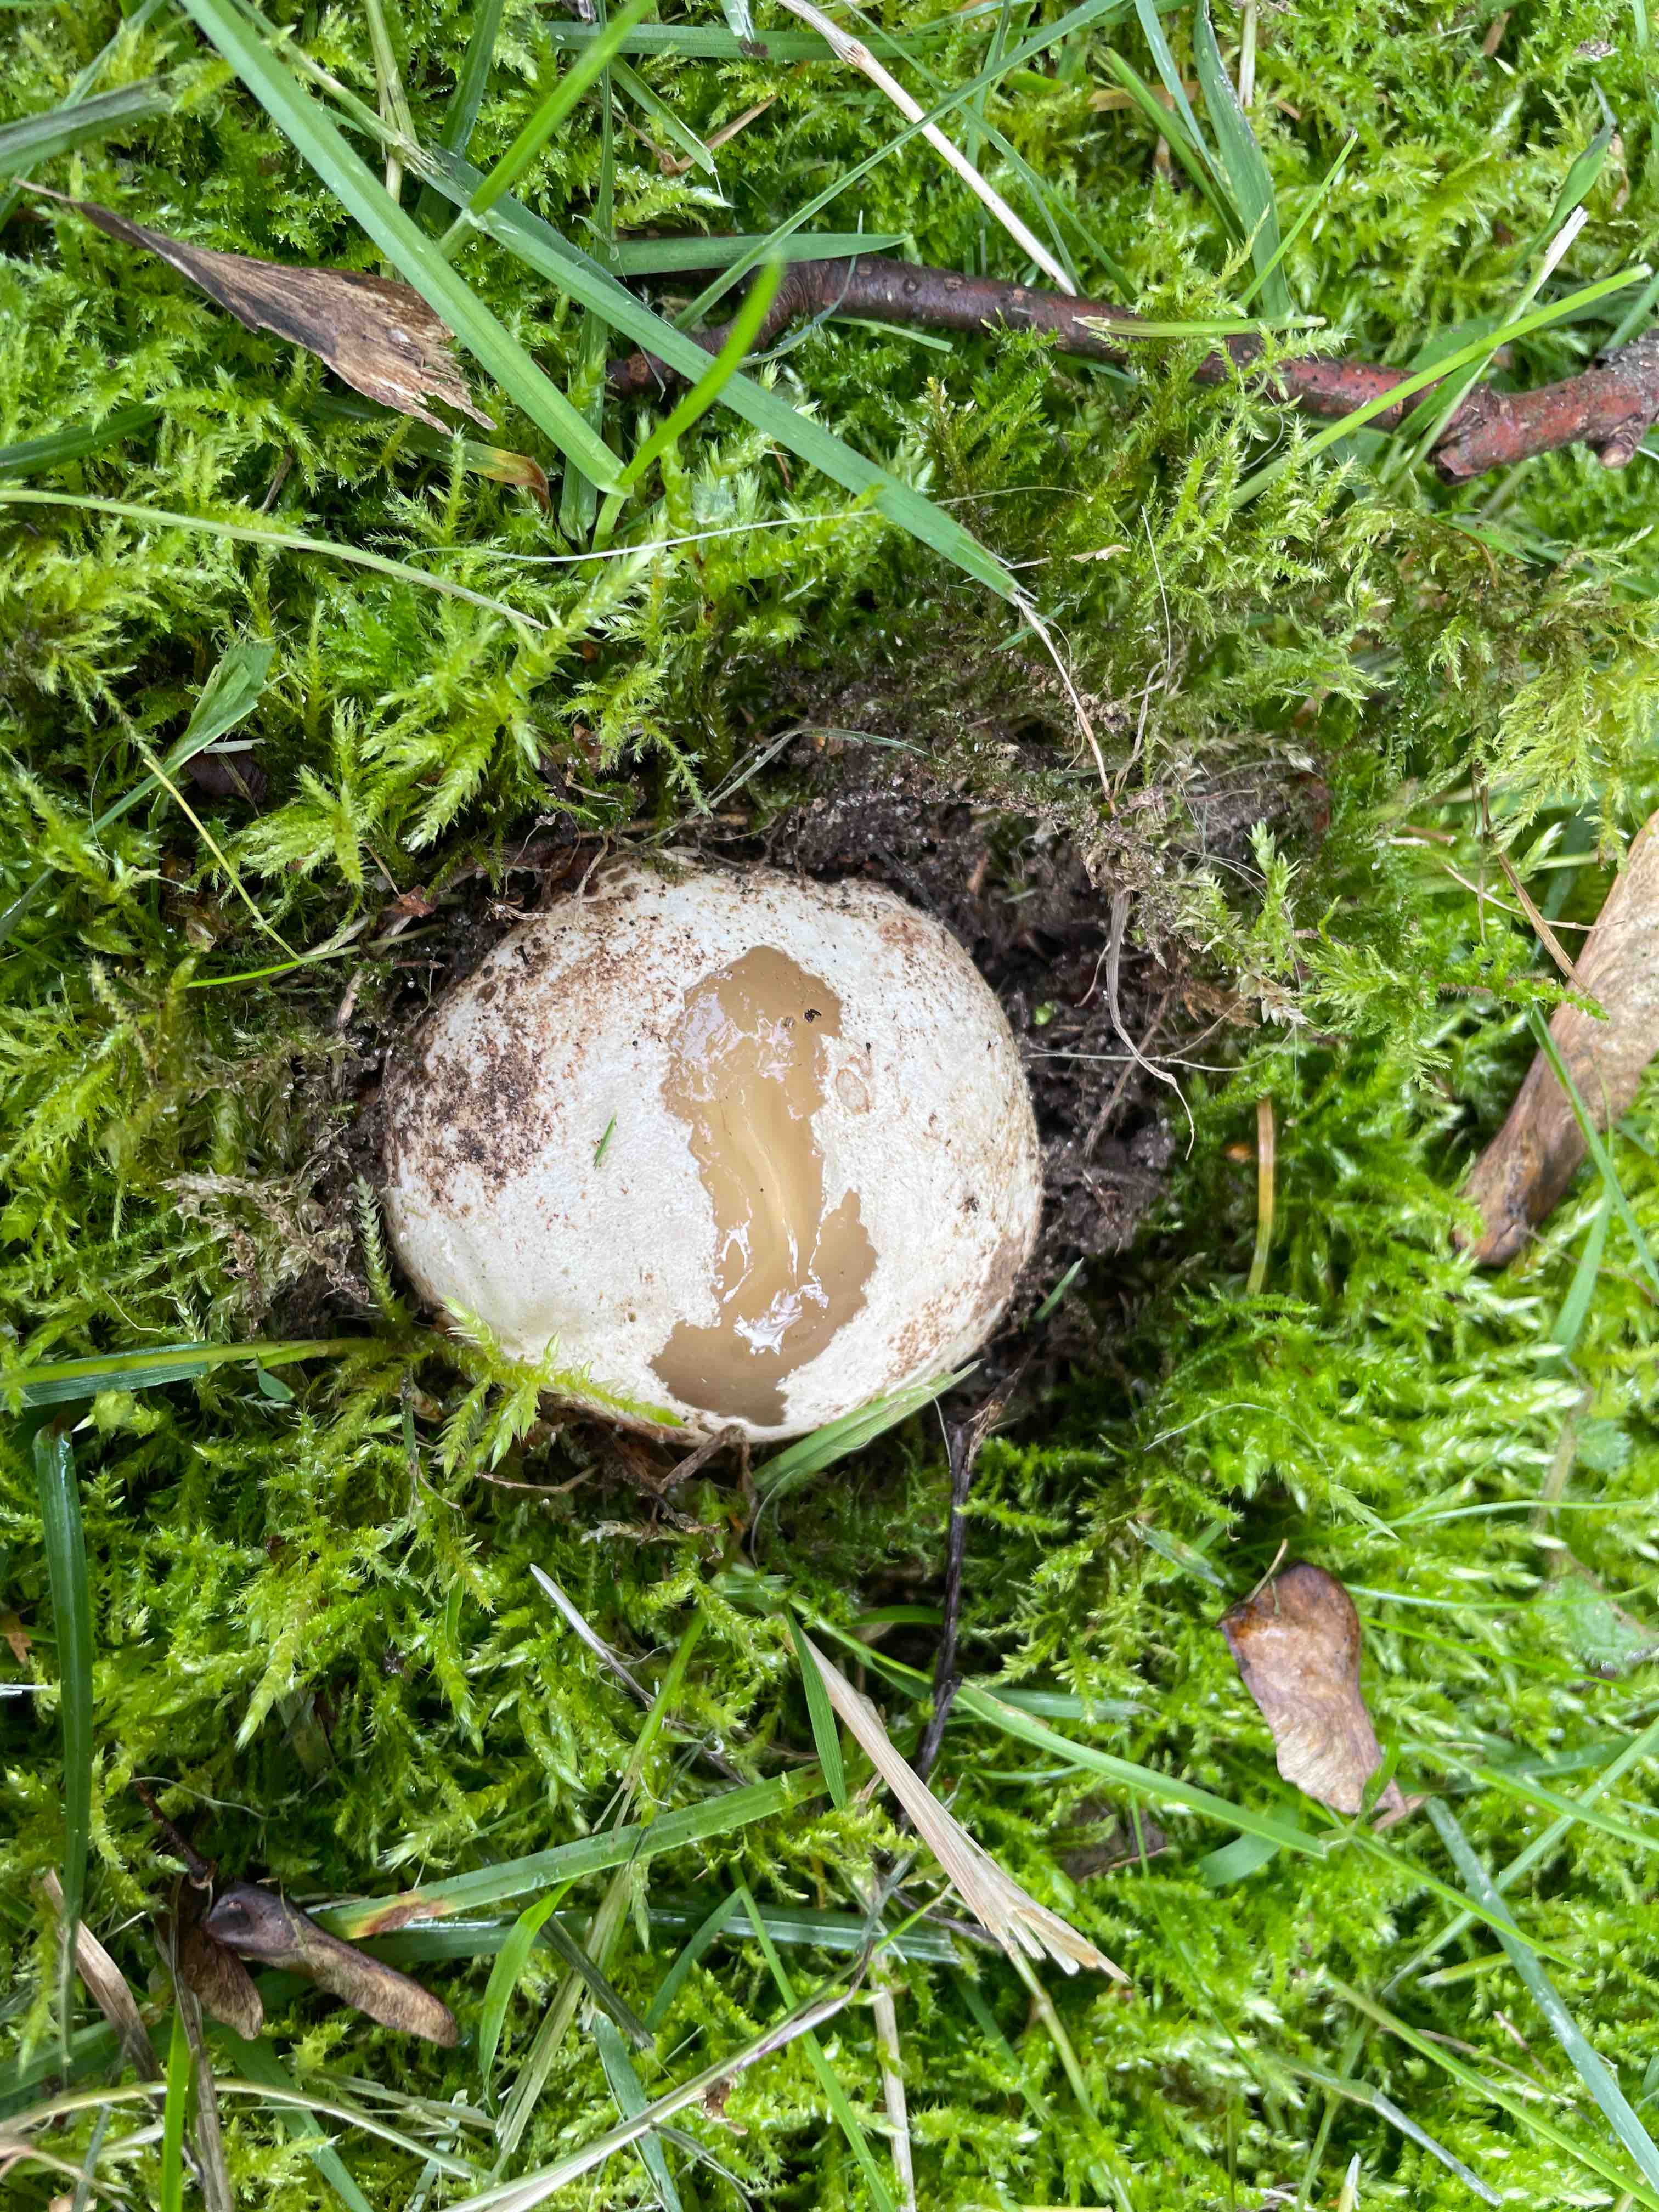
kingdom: Fungi
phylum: Basidiomycota
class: Agaricomycetes
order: Phallales
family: Phallaceae
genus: Phallus
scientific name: Phallus impudicus
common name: almindelig stinksvamp
